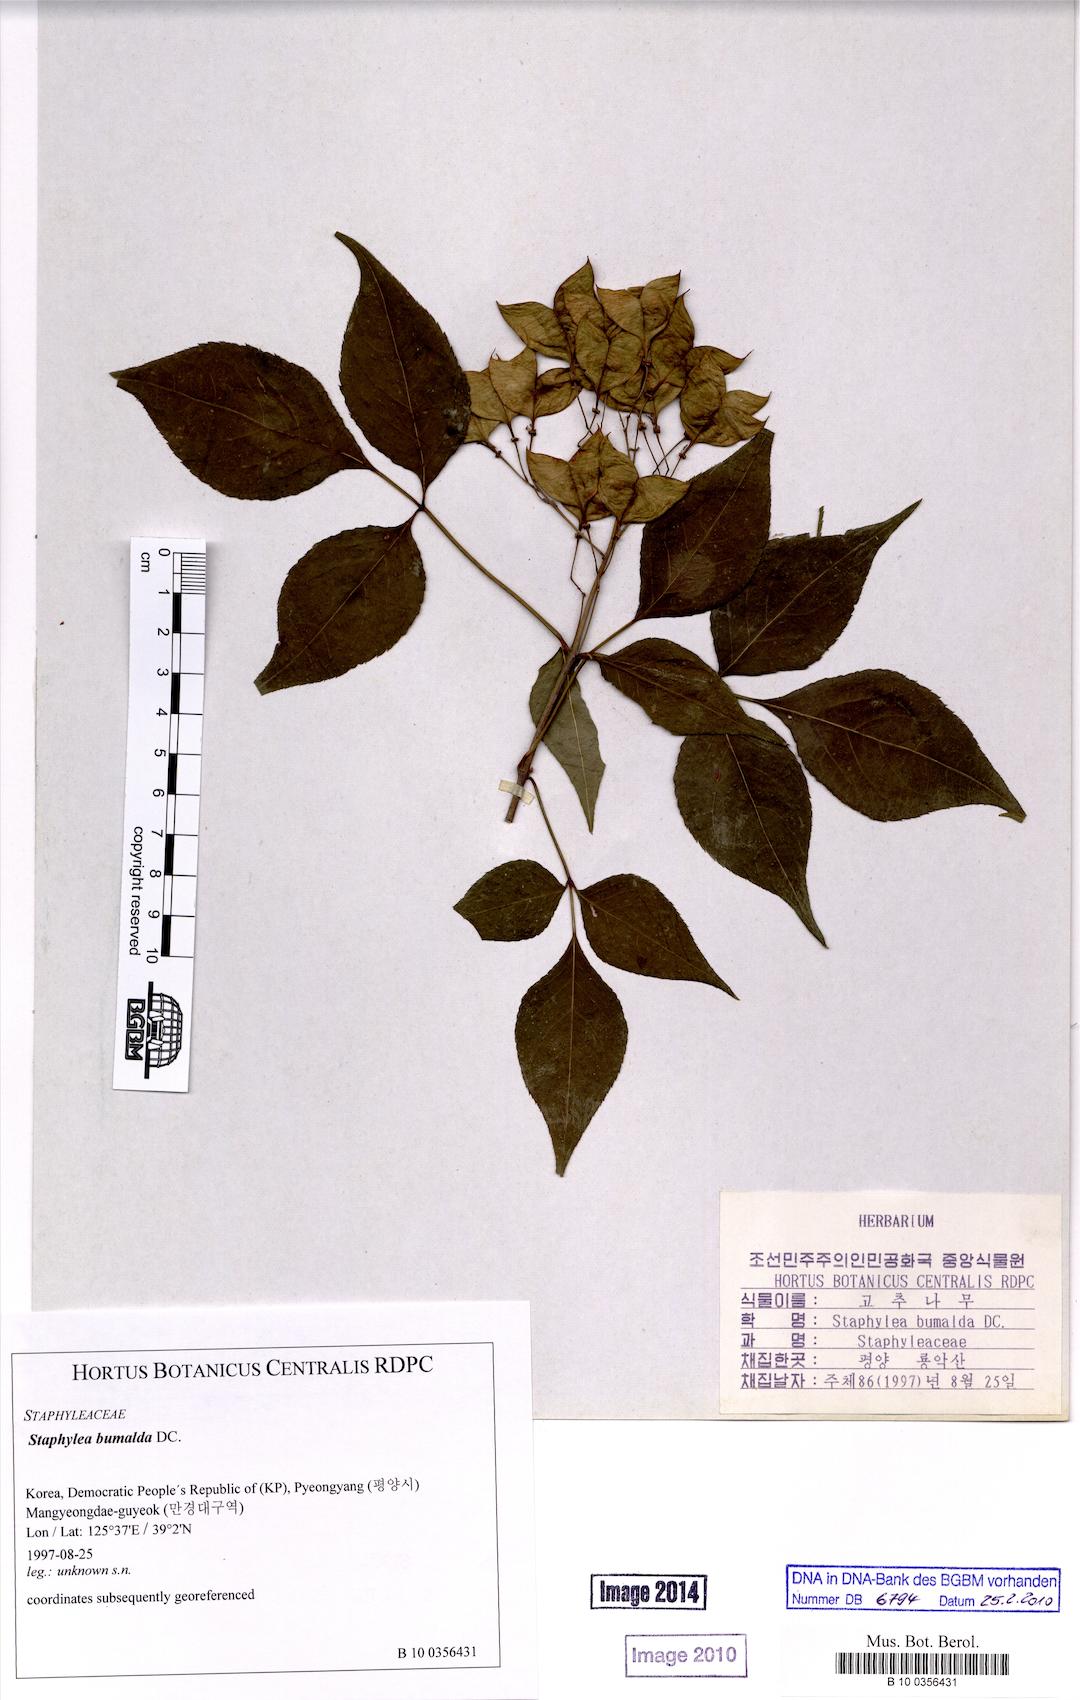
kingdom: Plantae
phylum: Tracheophyta
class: Magnoliopsida
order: Crossosomatales
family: Staphyleaceae
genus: Staphylea
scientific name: Staphylea bumalda
